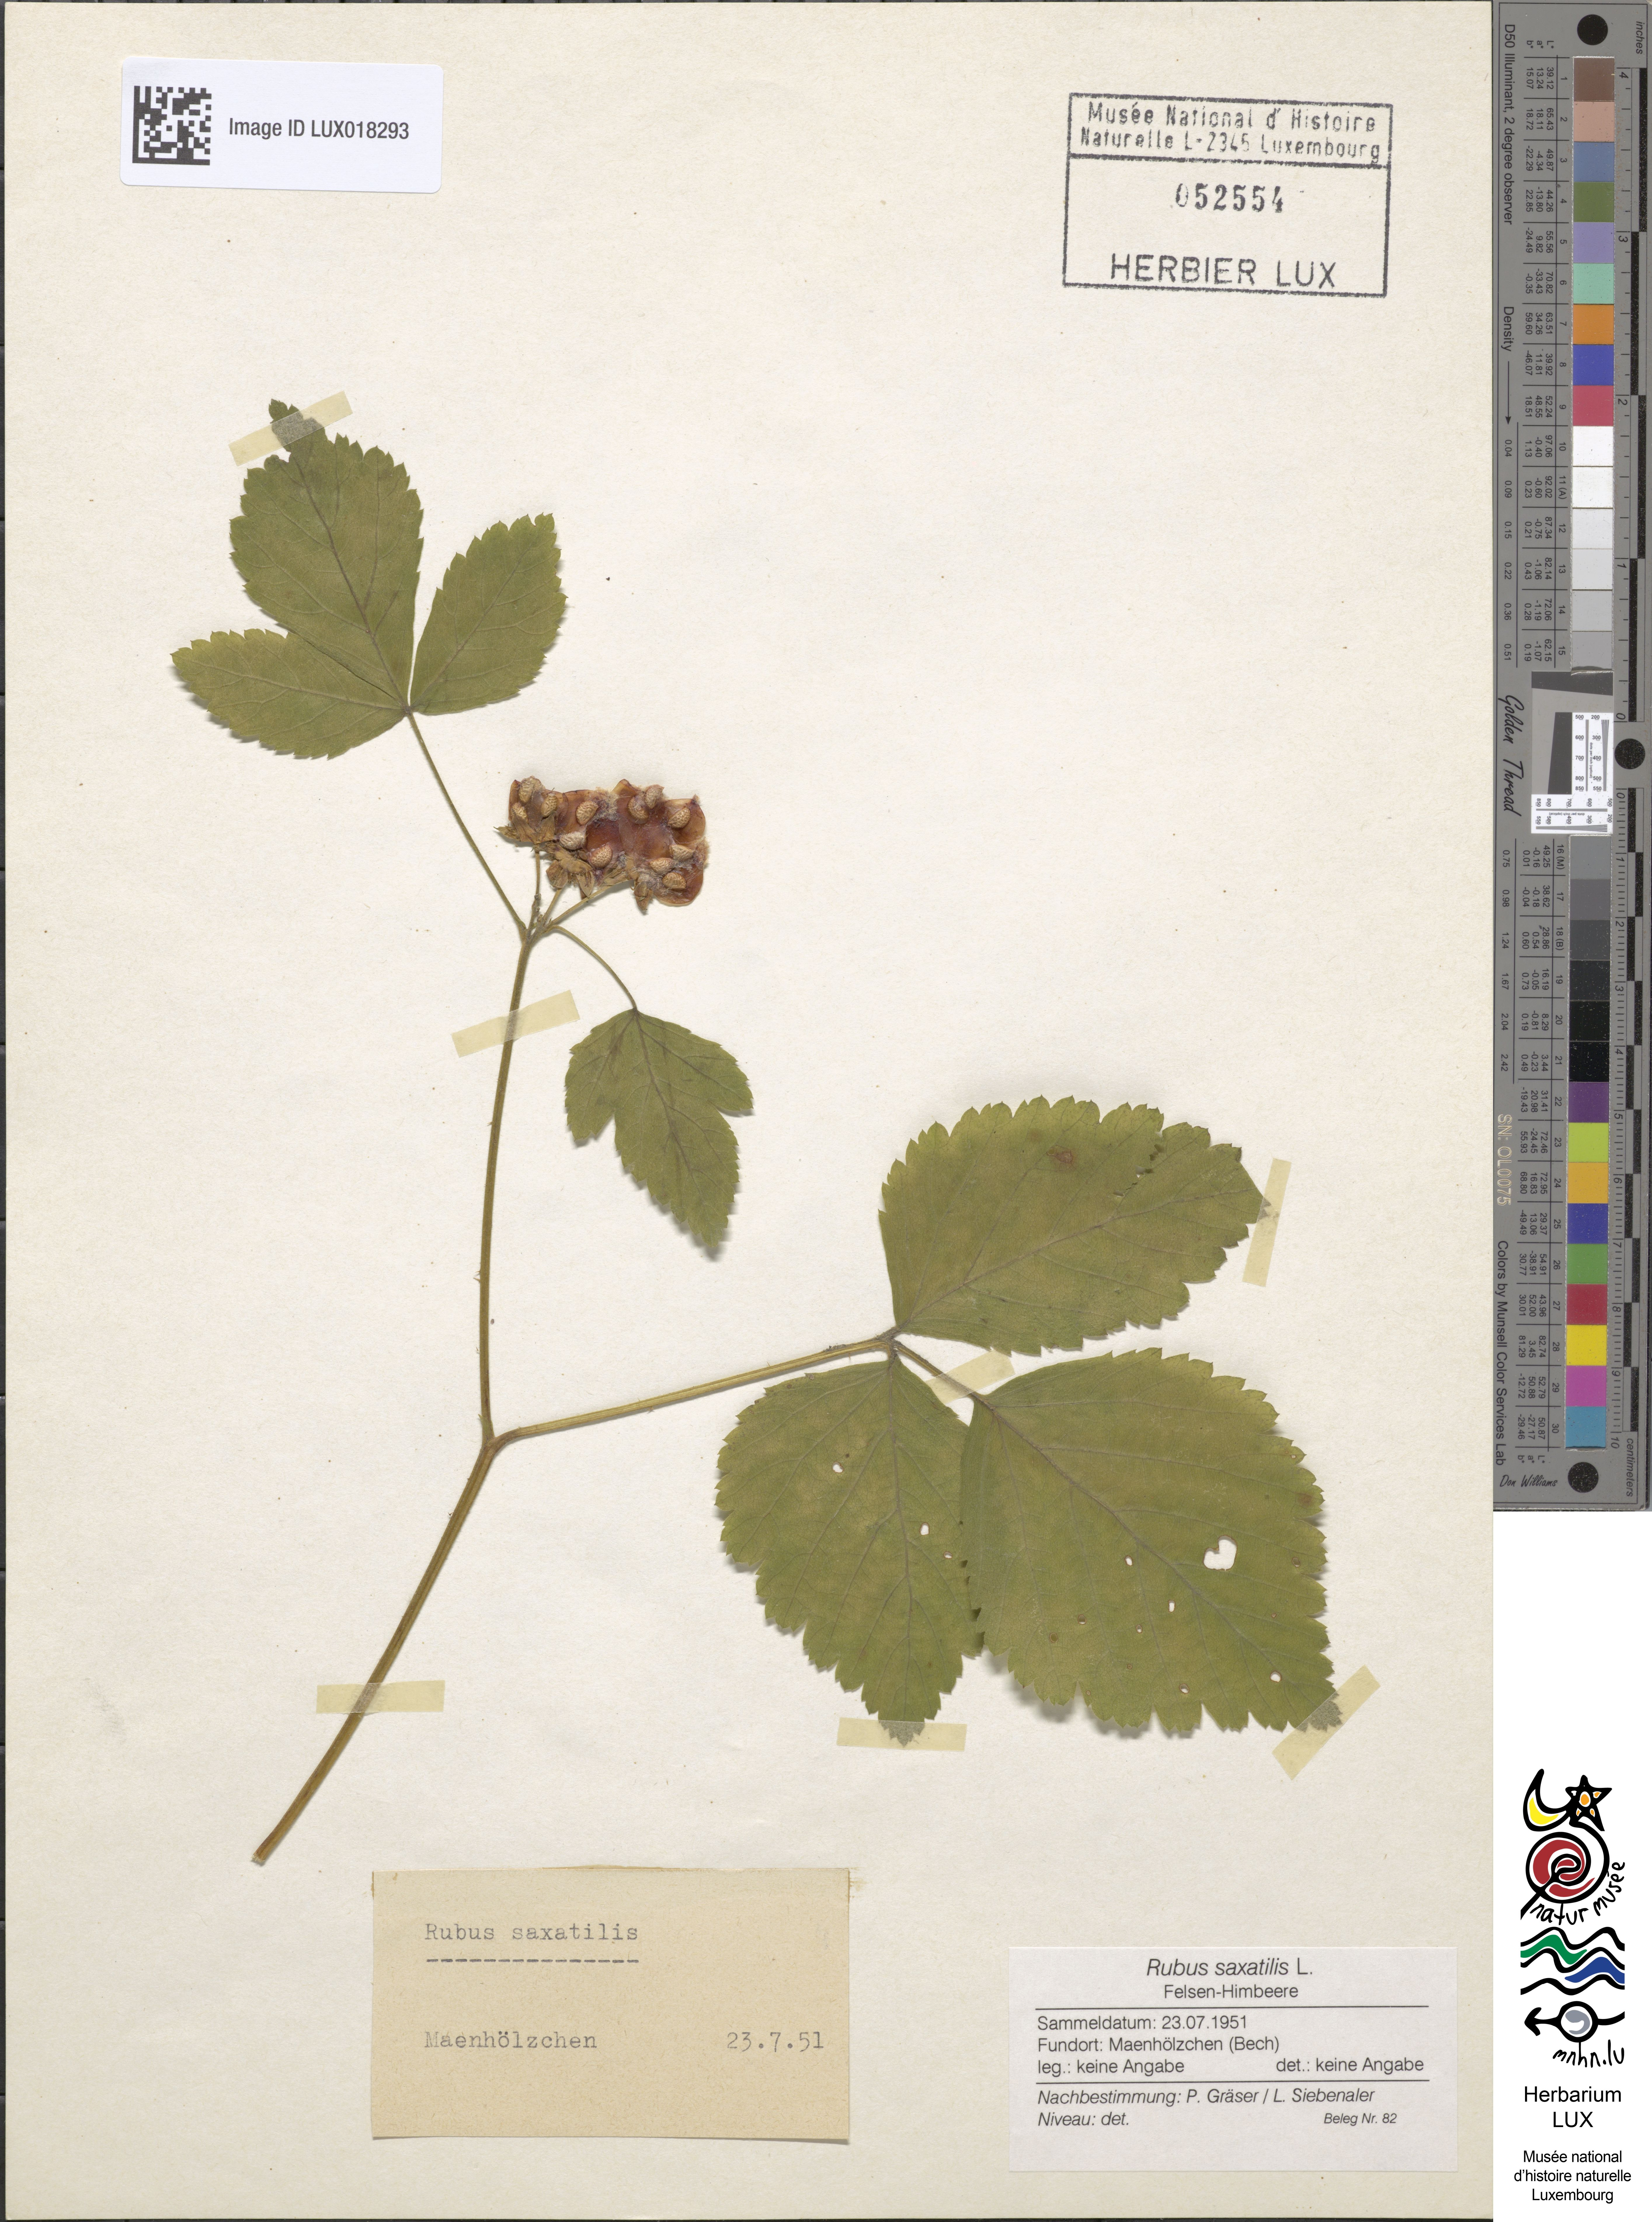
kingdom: Plantae
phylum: Tracheophyta
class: Magnoliopsida
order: Rosales
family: Rosaceae
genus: Rubus
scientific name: Rubus saxatilis
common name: Stone bramble
